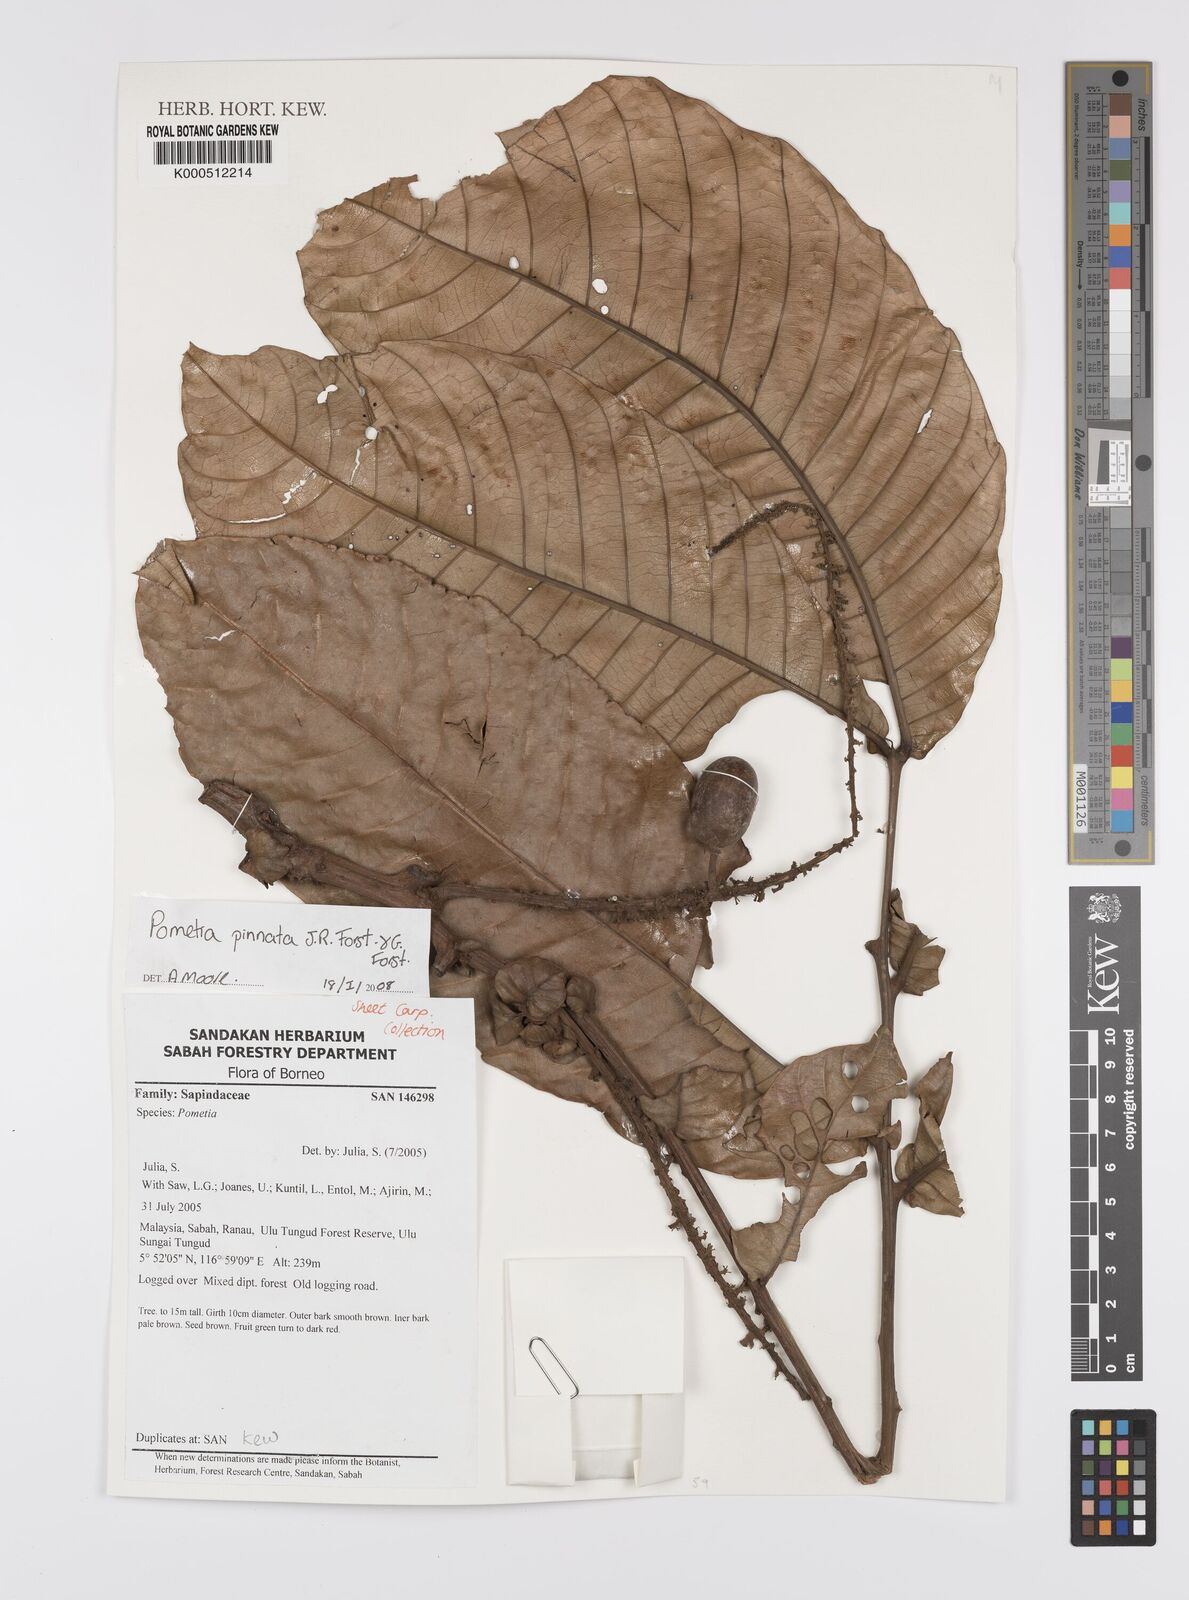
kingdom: Plantae
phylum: Tracheophyta
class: Magnoliopsida
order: Sapindales
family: Sapindaceae
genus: Pometia
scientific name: Pometia pinnata
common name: Oceanic lychee
